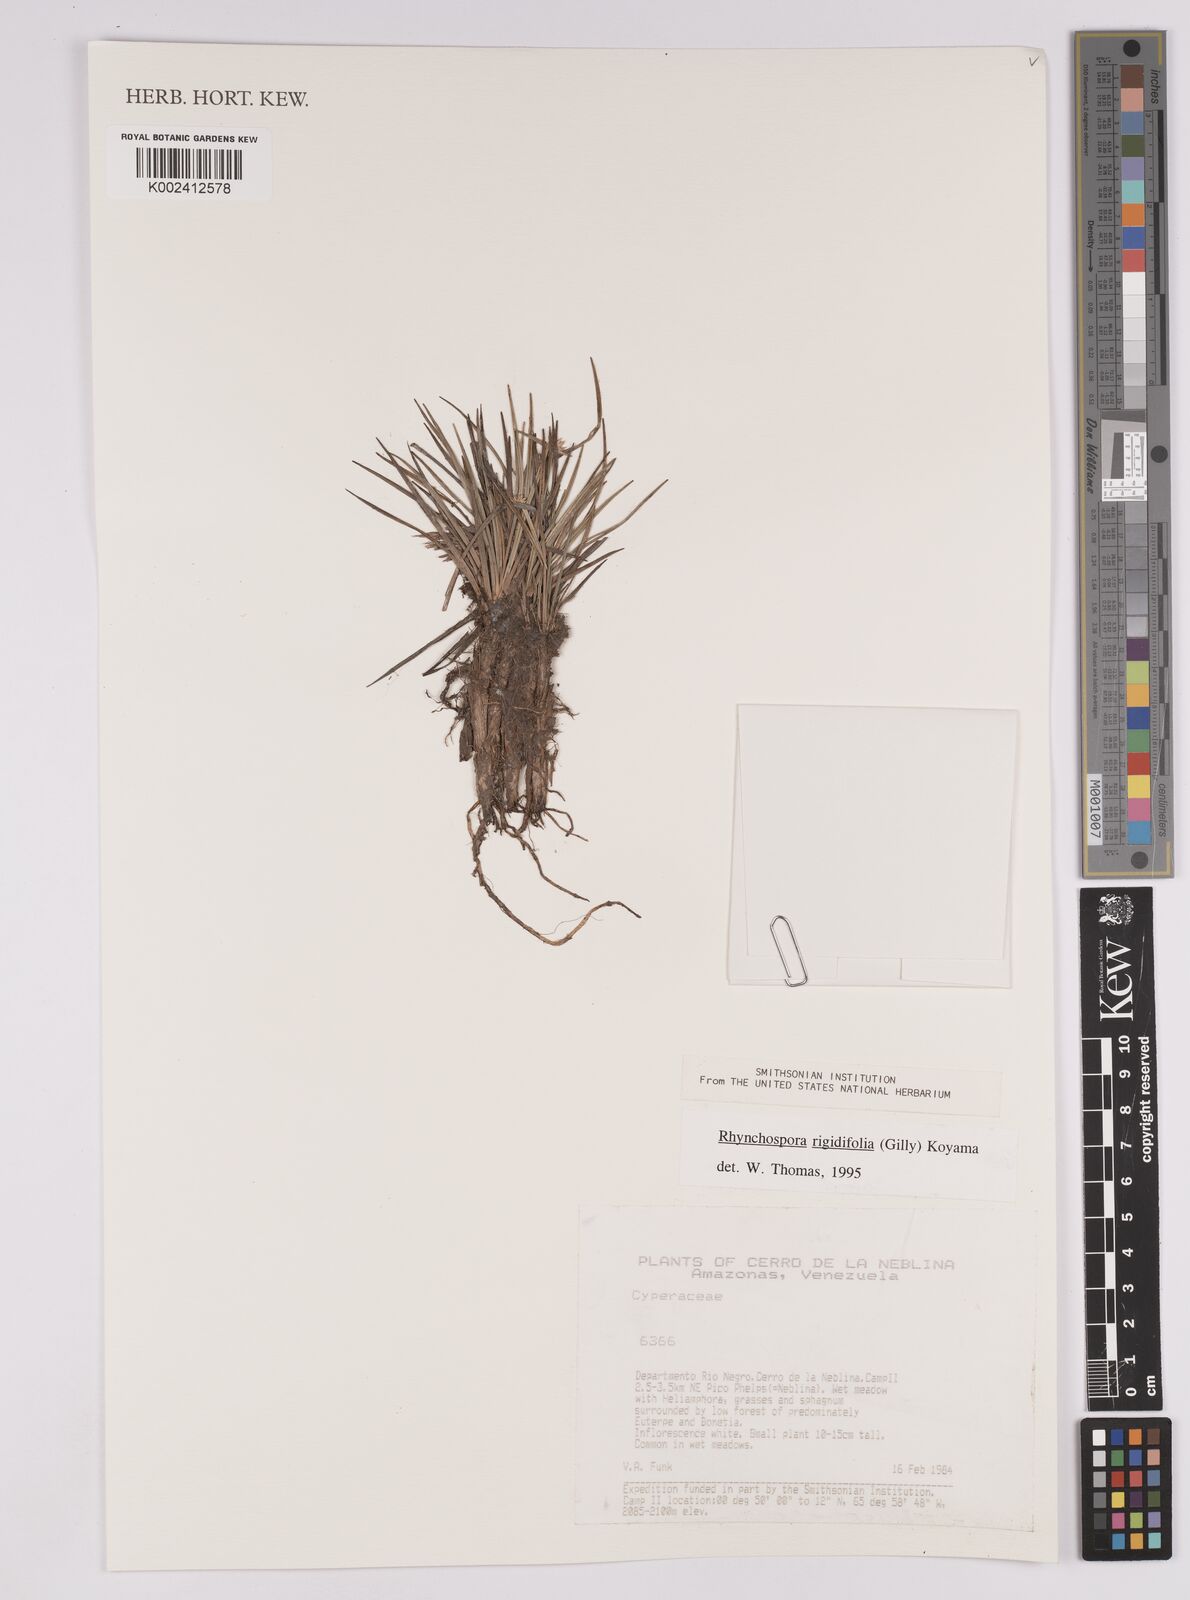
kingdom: Plantae
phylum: Tracheophyta
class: Liliopsida
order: Poales
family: Cyperaceae
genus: Rhynchospora
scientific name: Rhynchospora roraimae
